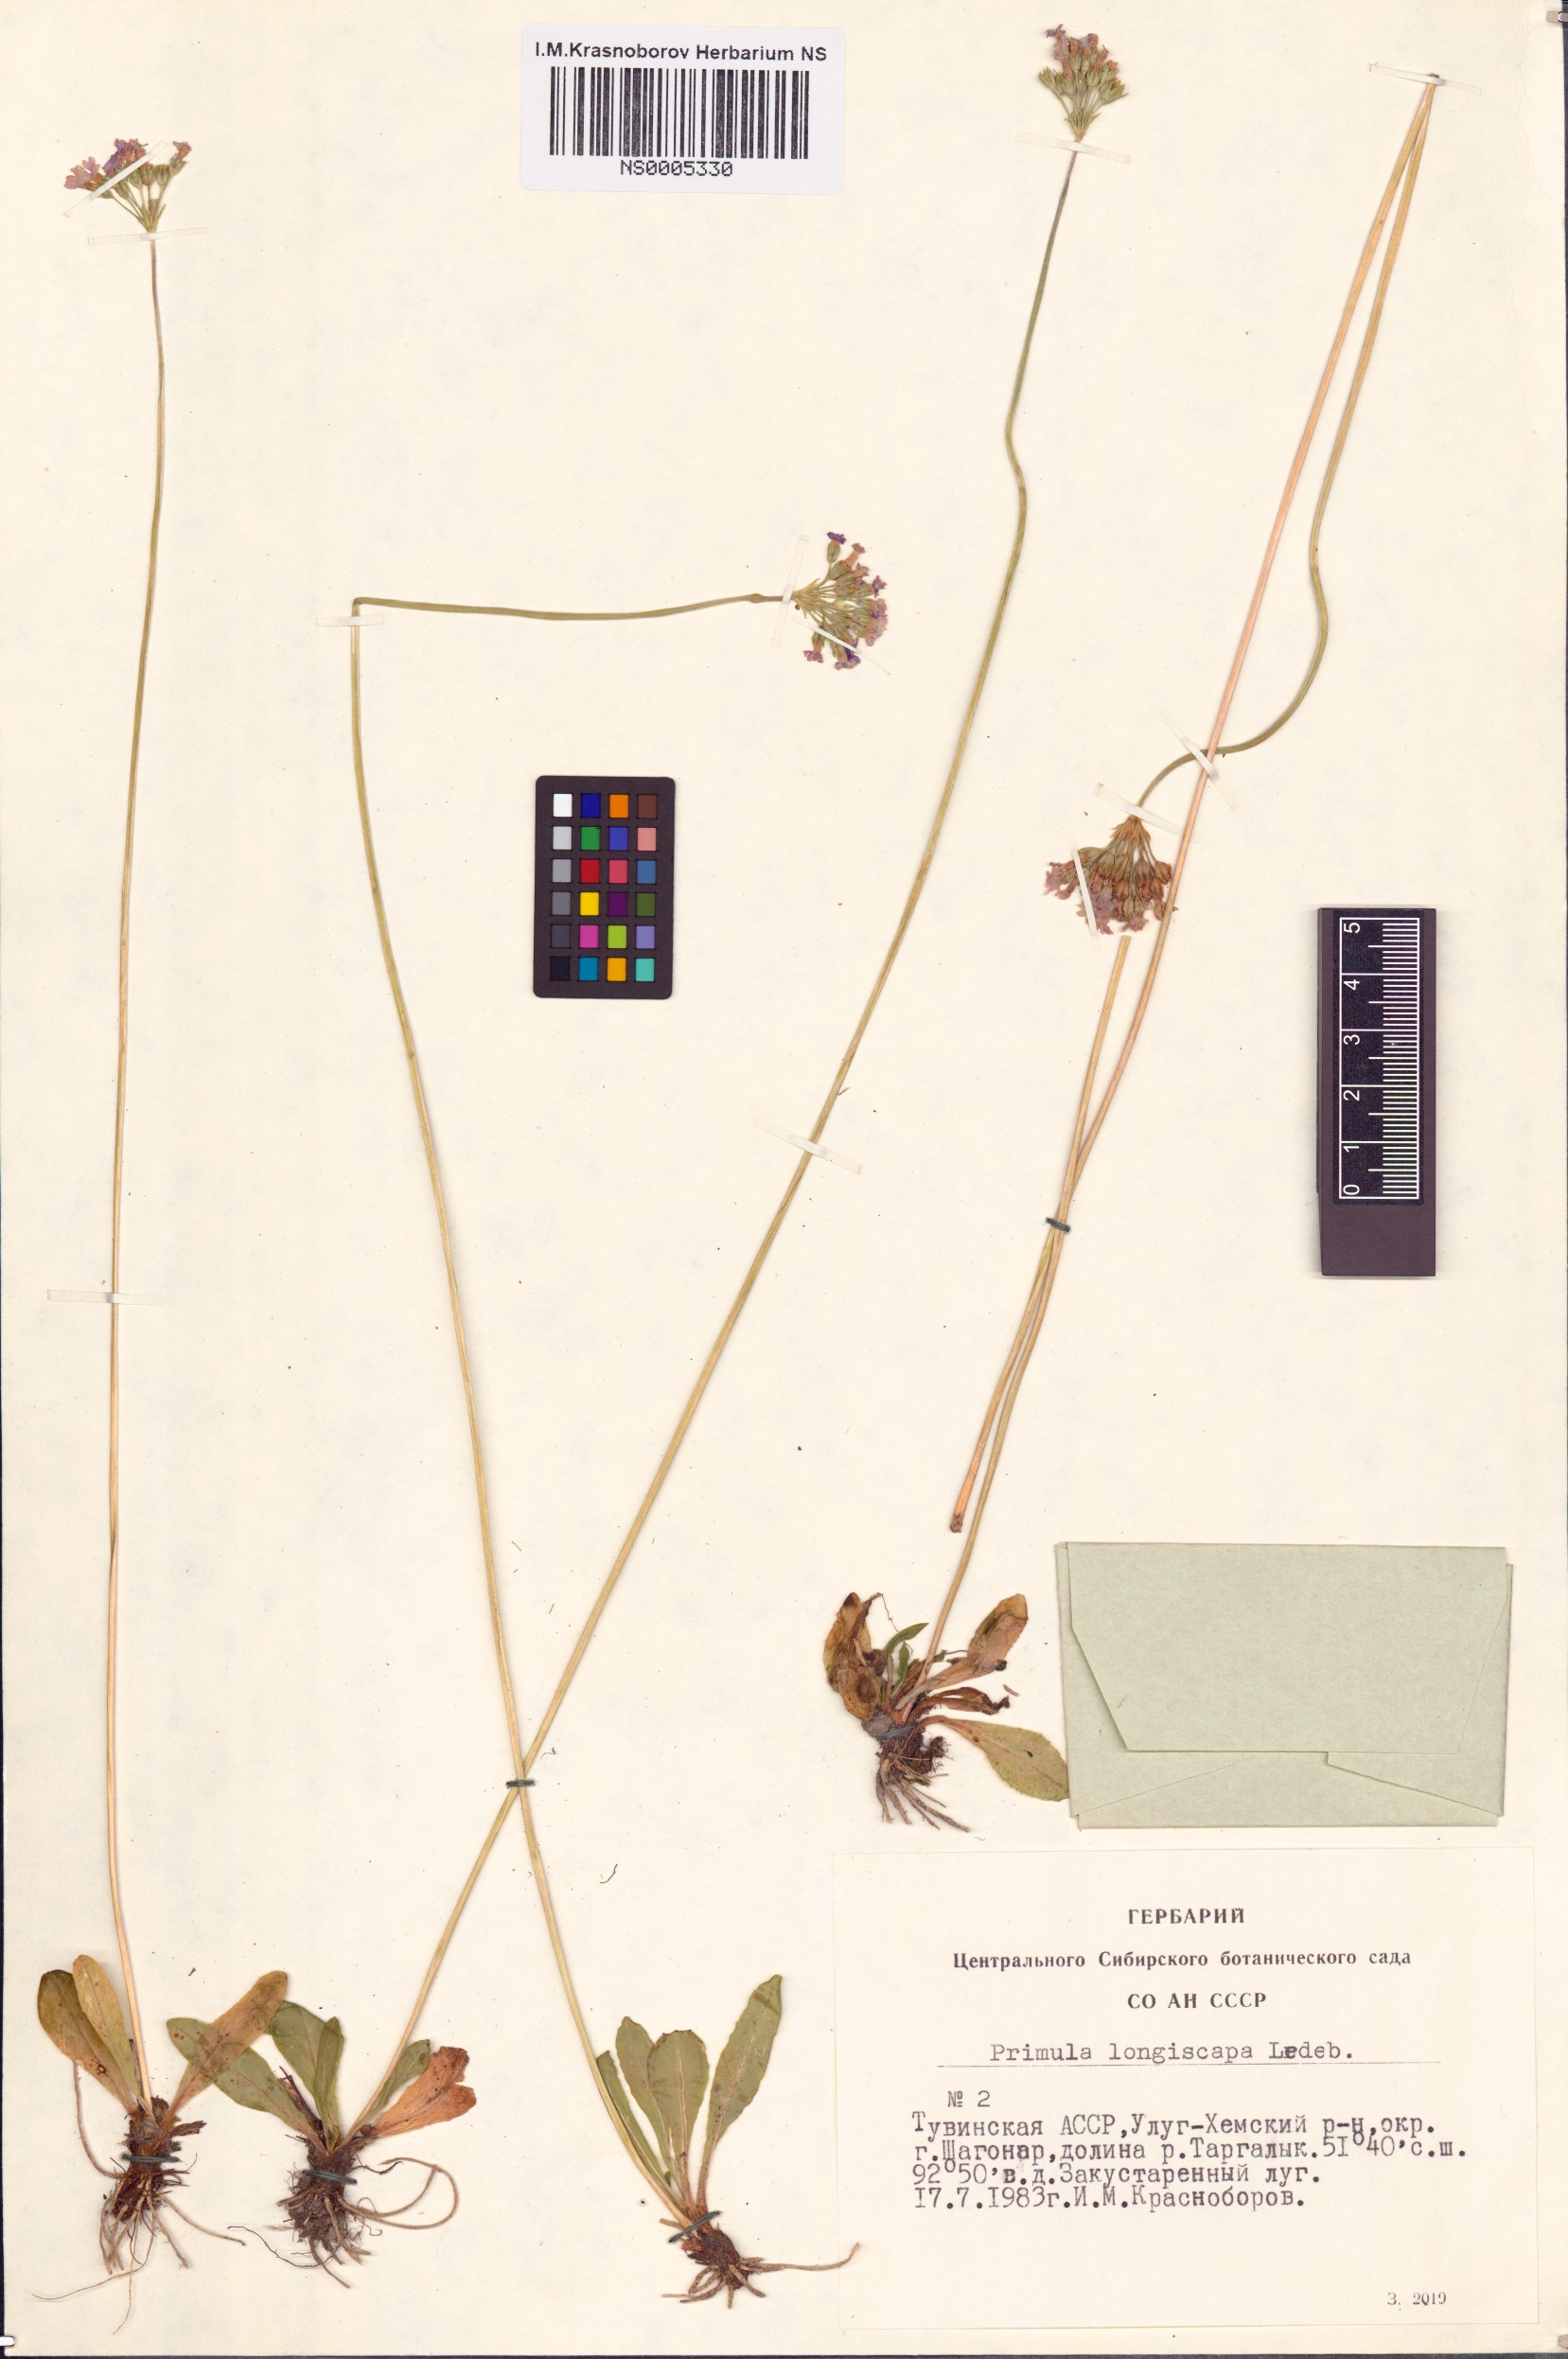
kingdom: Plantae
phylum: Tracheophyta
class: Magnoliopsida
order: Ericales
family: Primulaceae
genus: Primula
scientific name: Primula longiscapa
